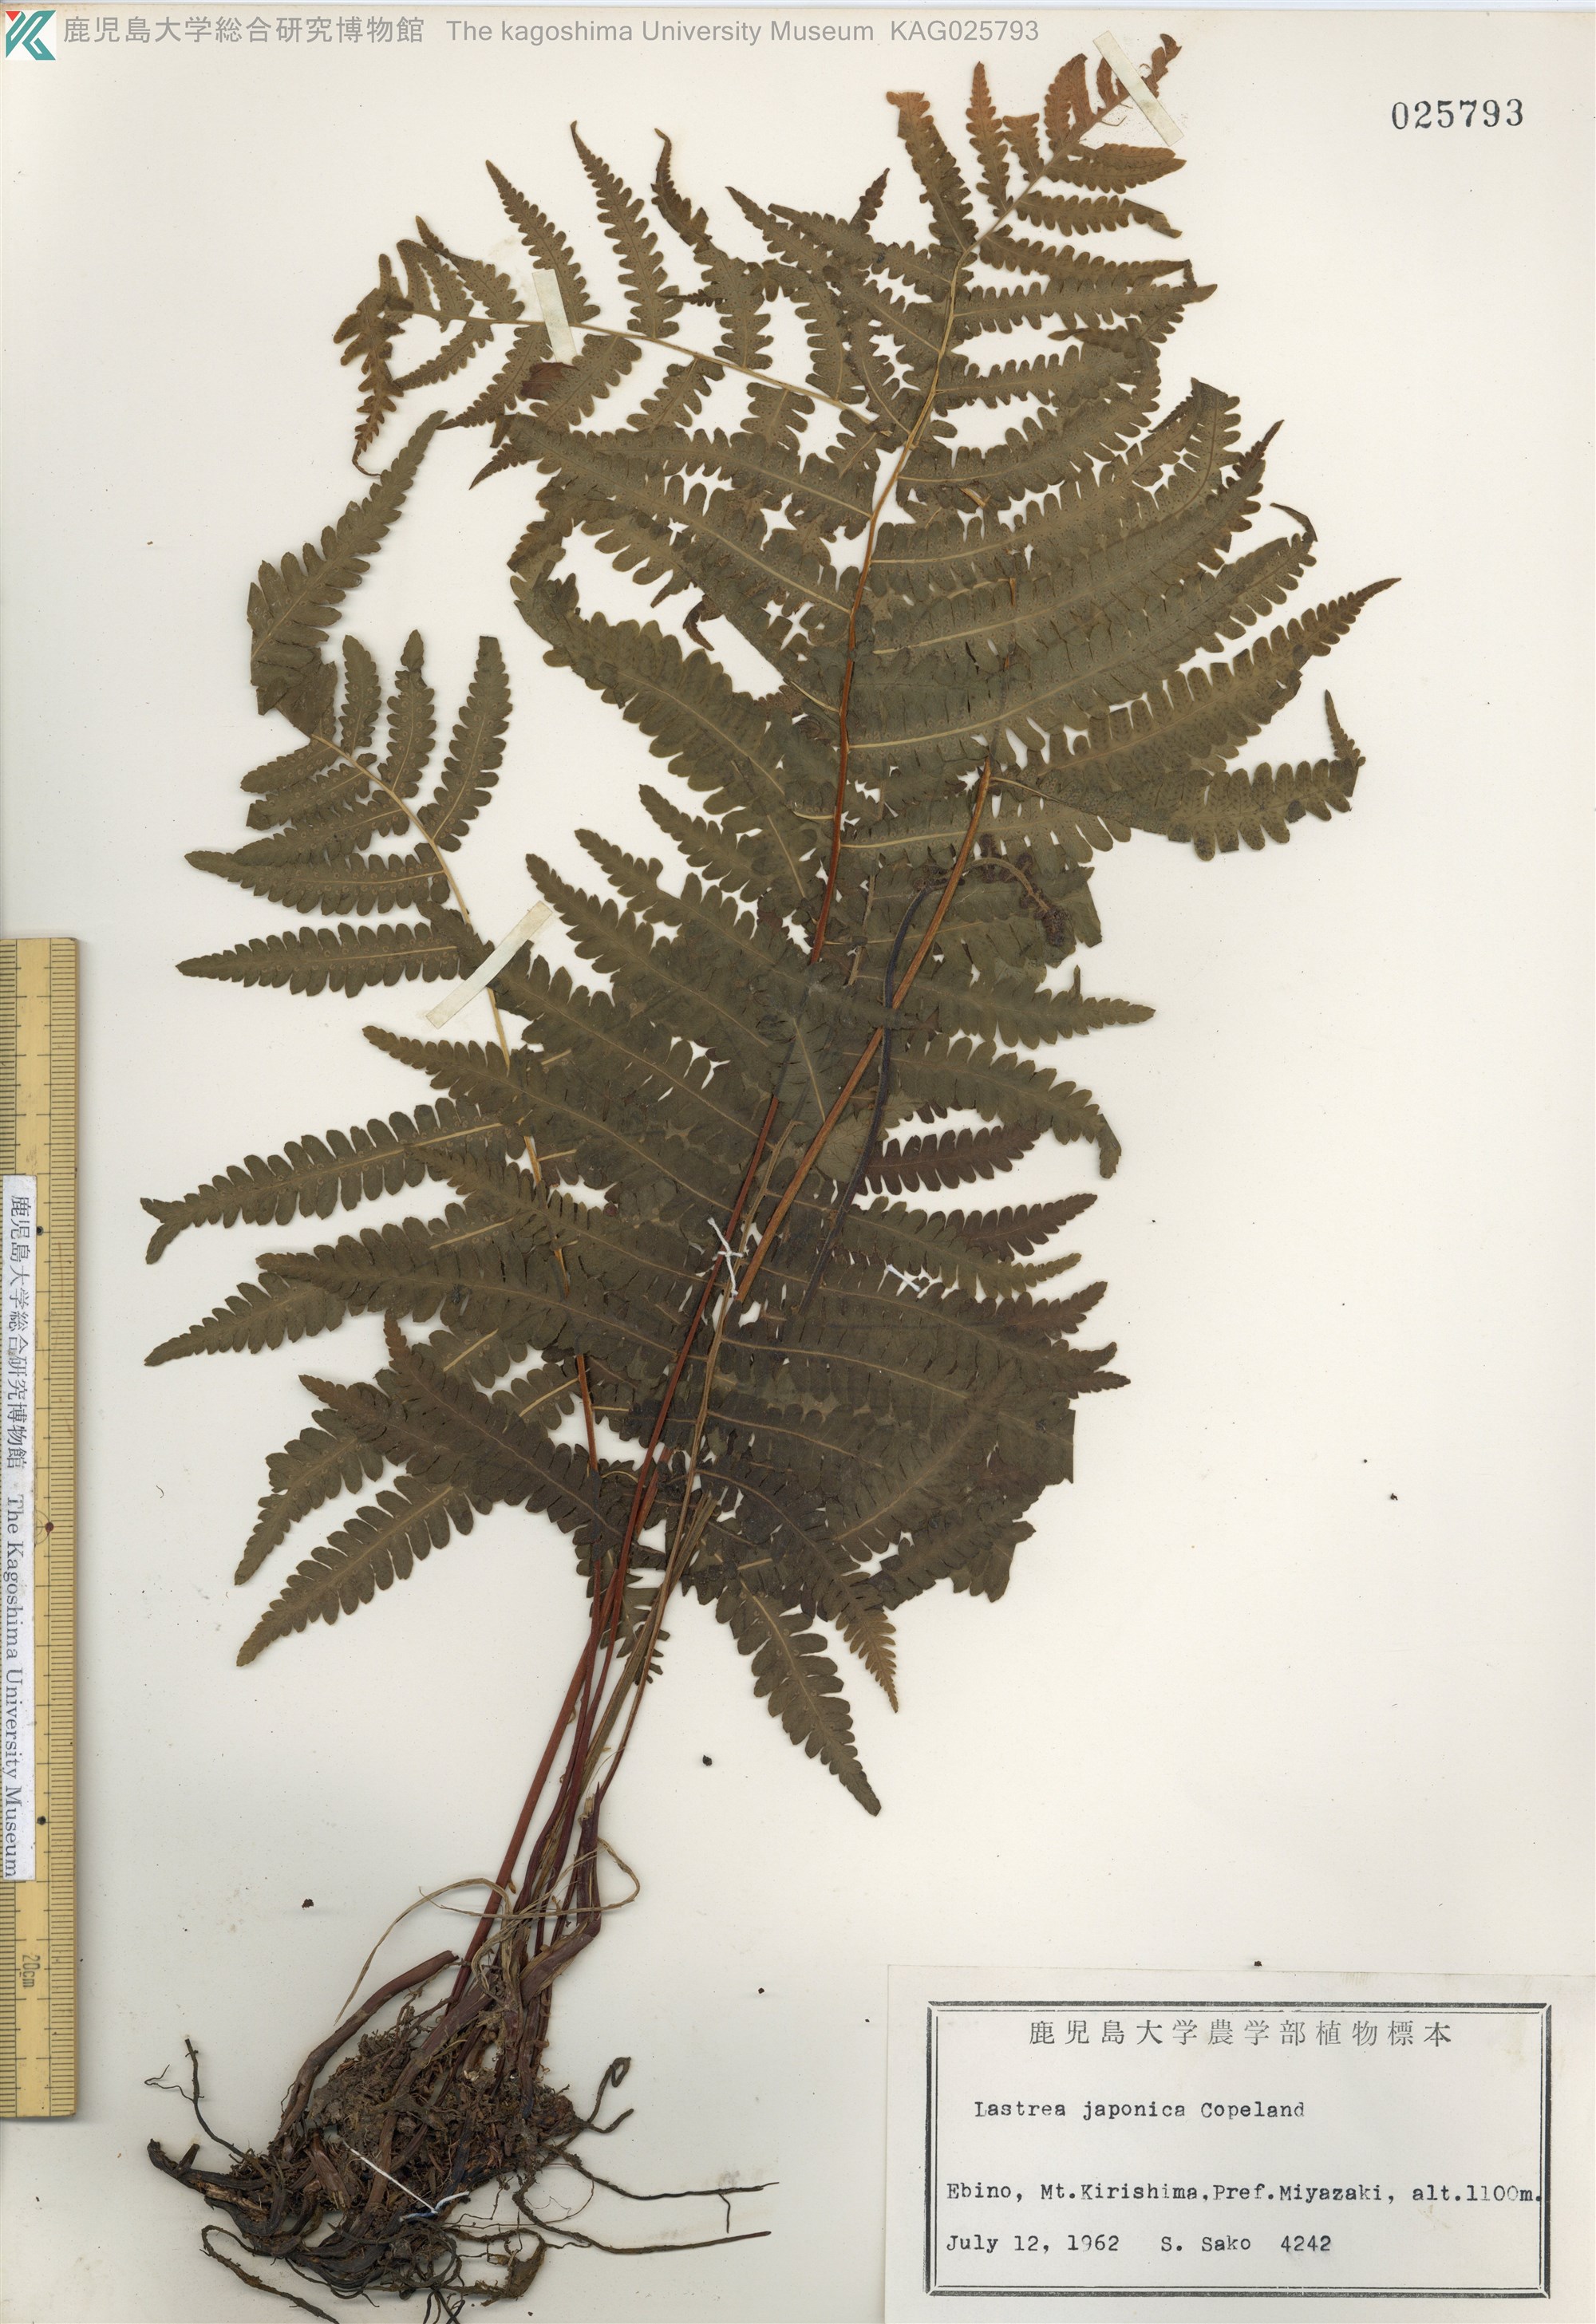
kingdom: Plantae
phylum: Tracheophyta
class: Polypodiopsida
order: Polypodiales
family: Thelypteridaceae
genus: Coryphopteris
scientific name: Coryphopteris japonica
